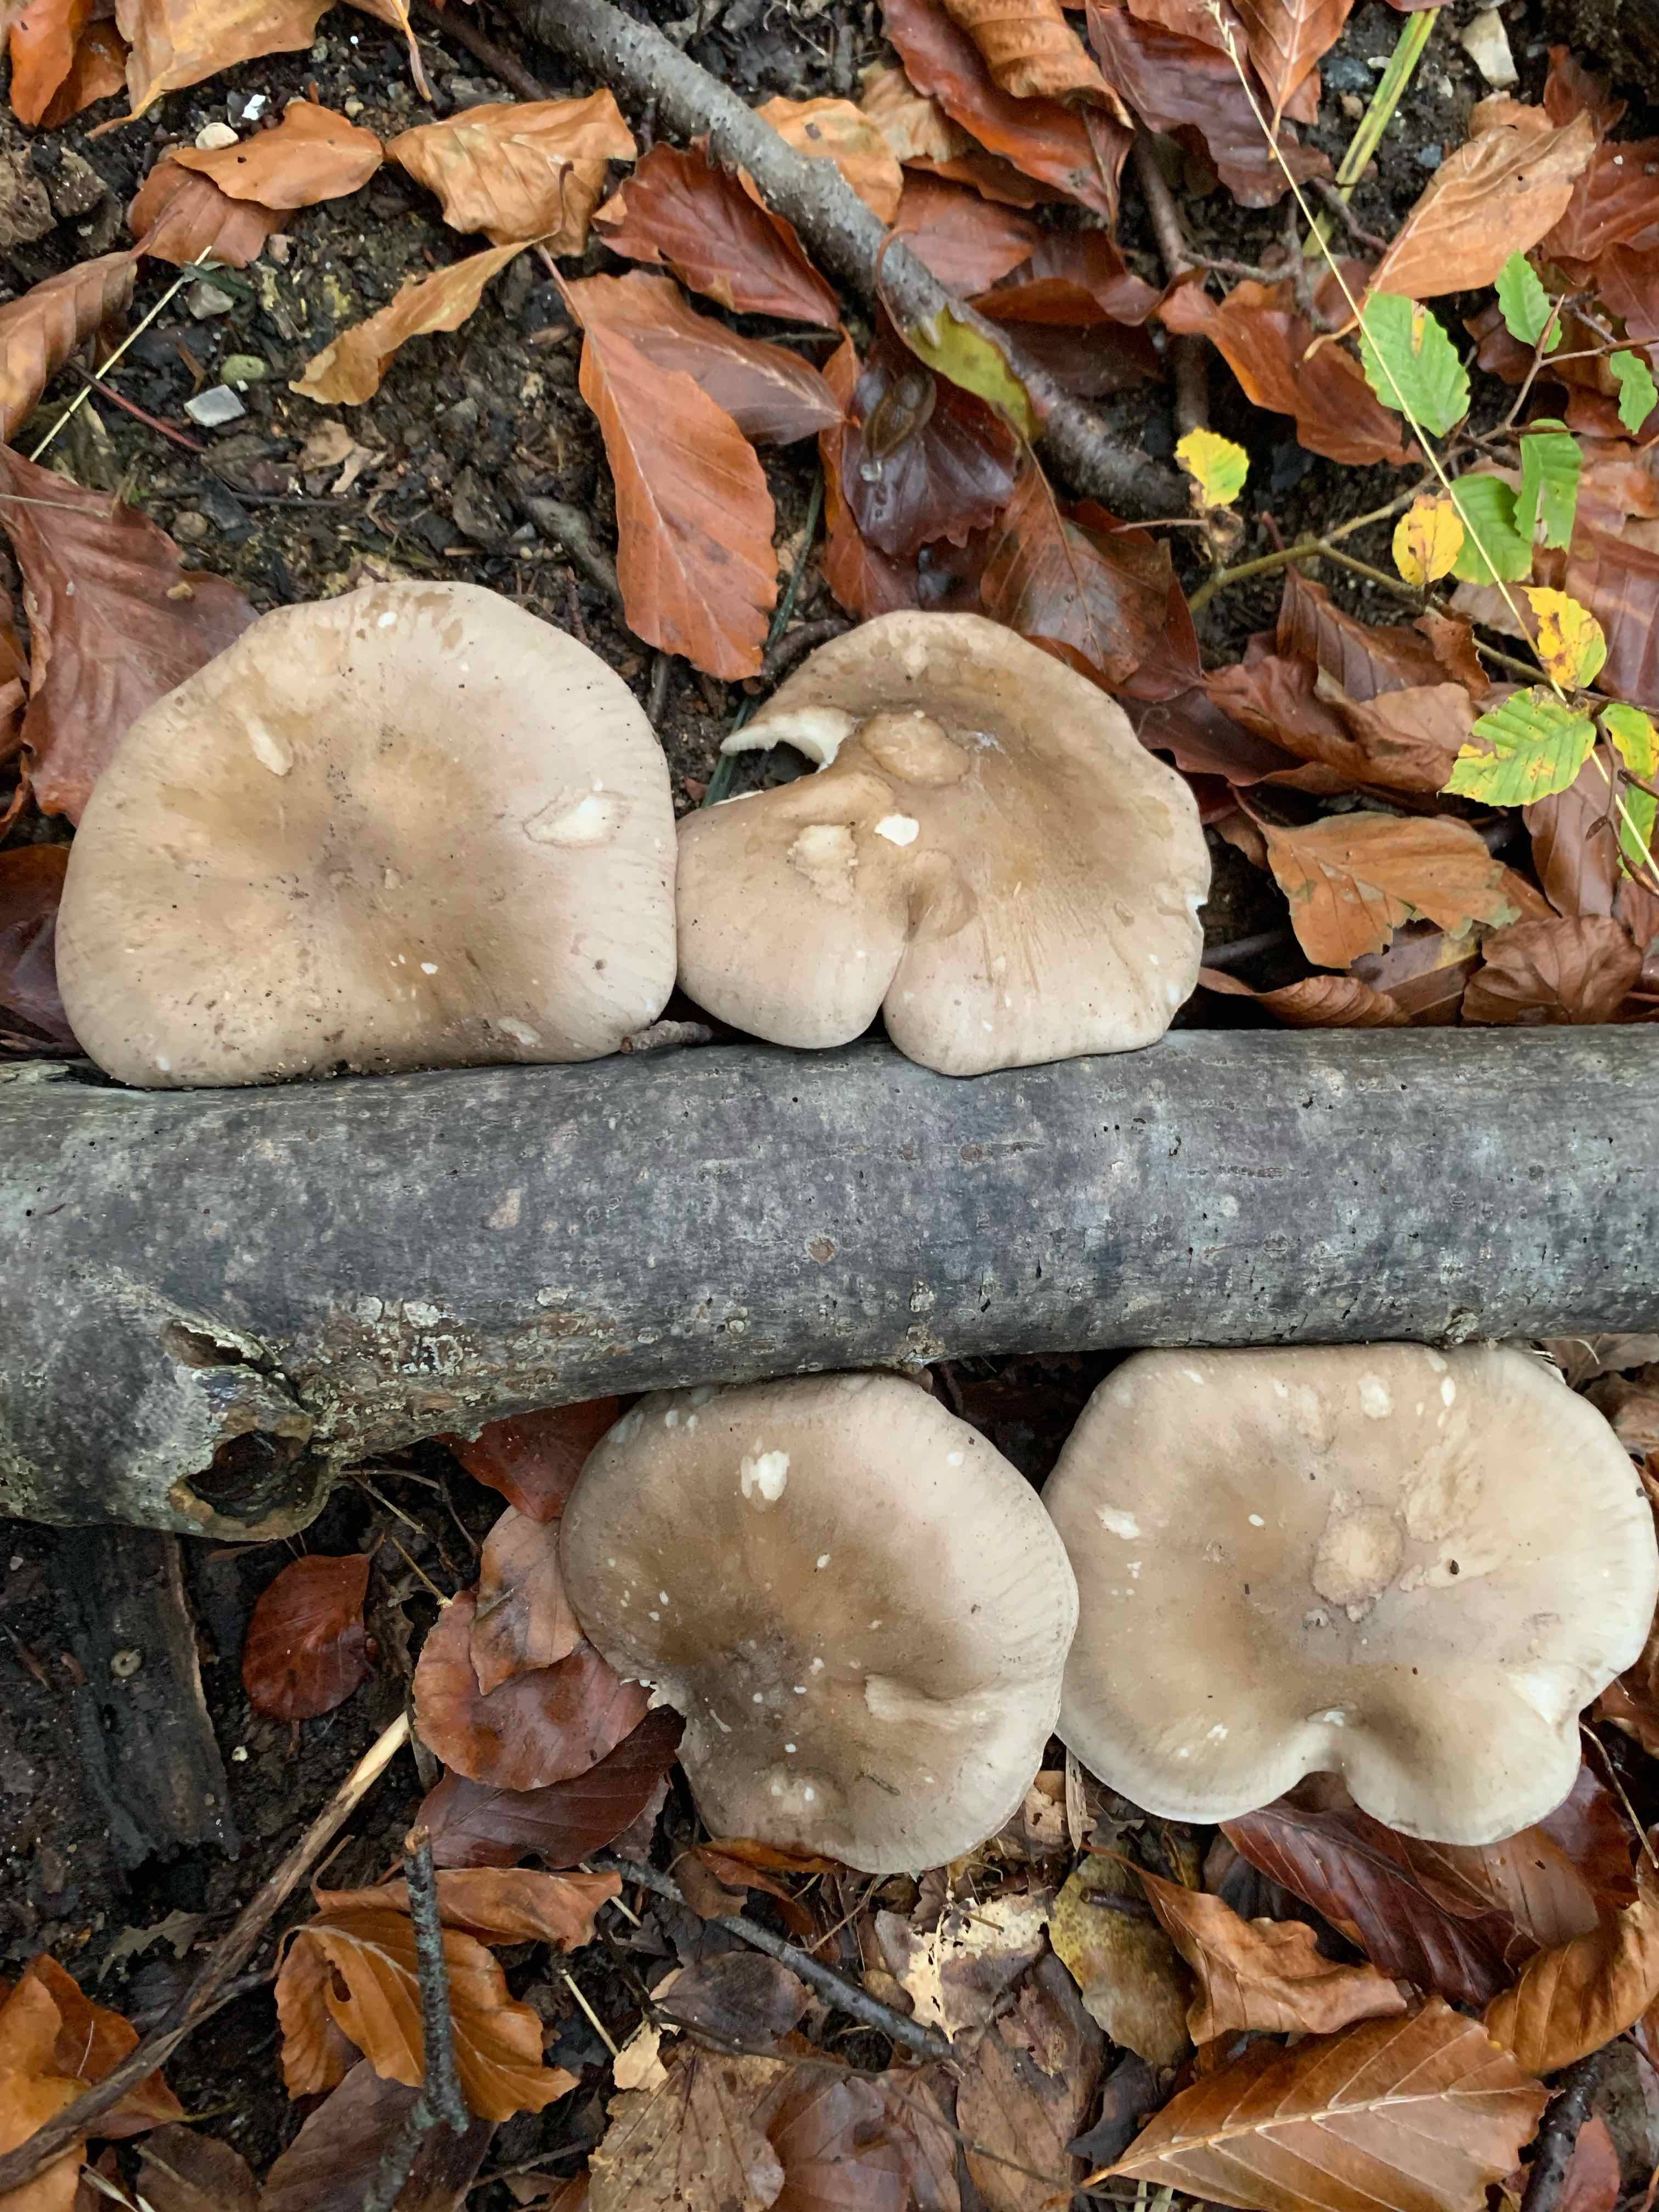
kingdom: Fungi
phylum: Basidiomycota
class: Agaricomycetes
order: Agaricales
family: Tricholomataceae
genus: Clitocybe
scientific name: Clitocybe nebularis
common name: tåge-tragthat
